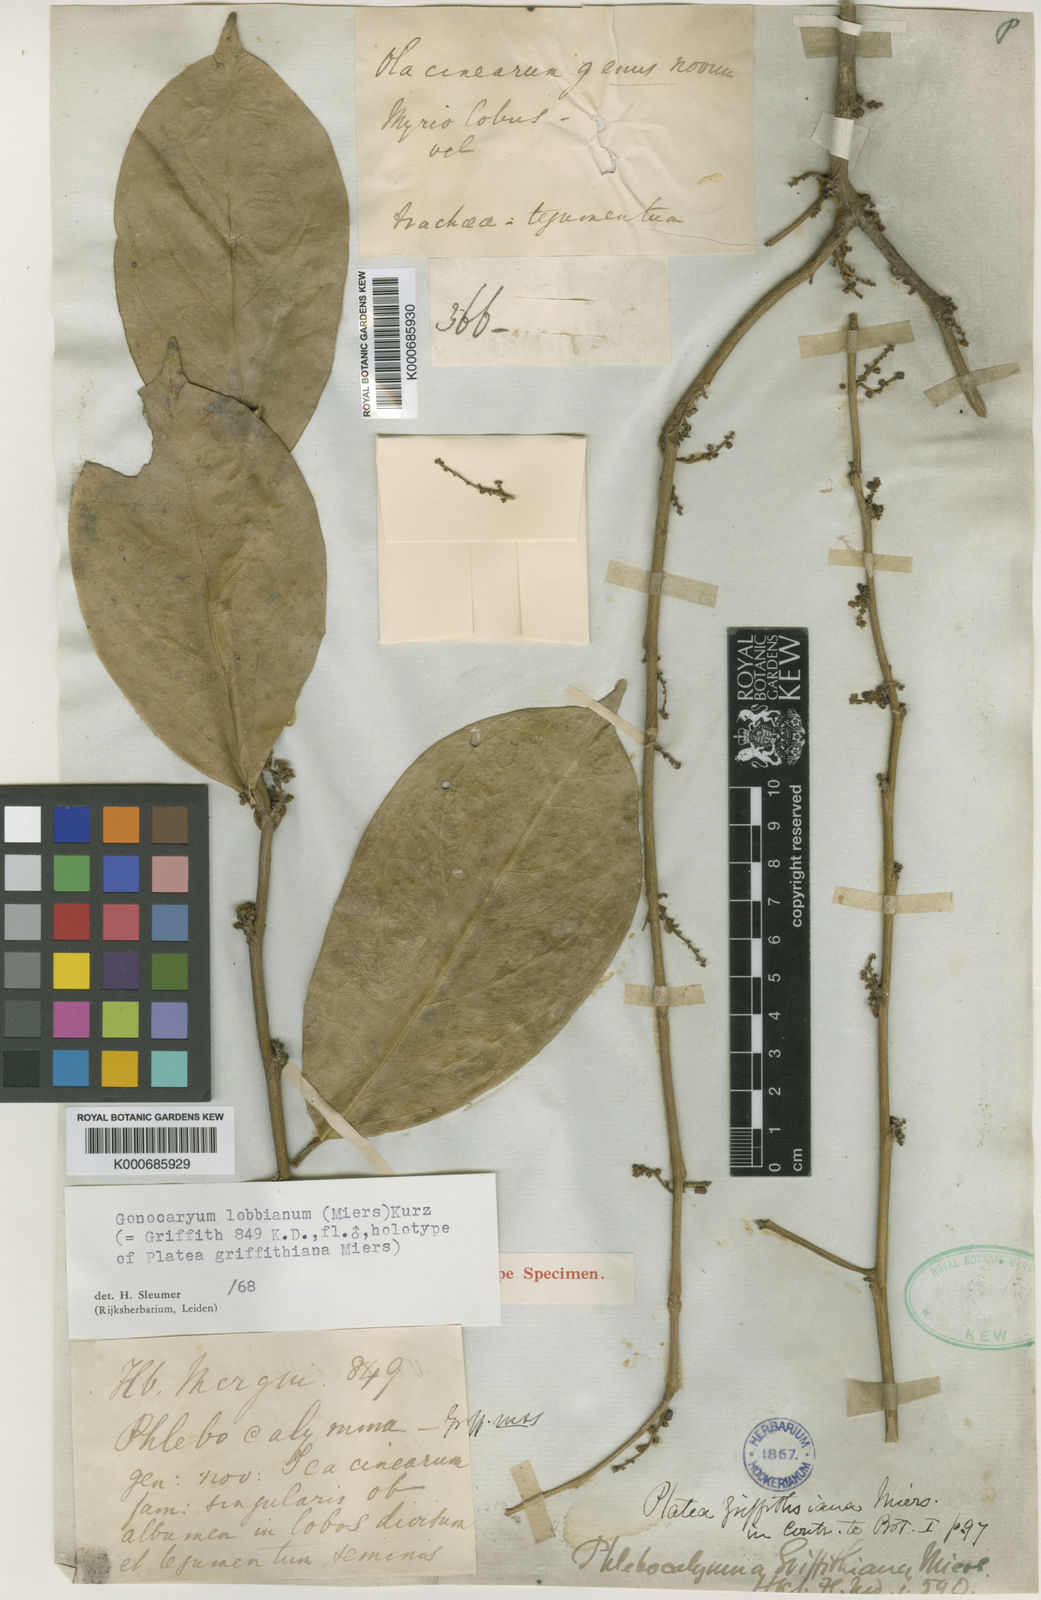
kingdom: Plantae
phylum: Tracheophyta
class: Magnoliopsida
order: Cardiopteridales
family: Cardiopteridaceae
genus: Gonocaryum
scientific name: Gonocaryum lobbianum
